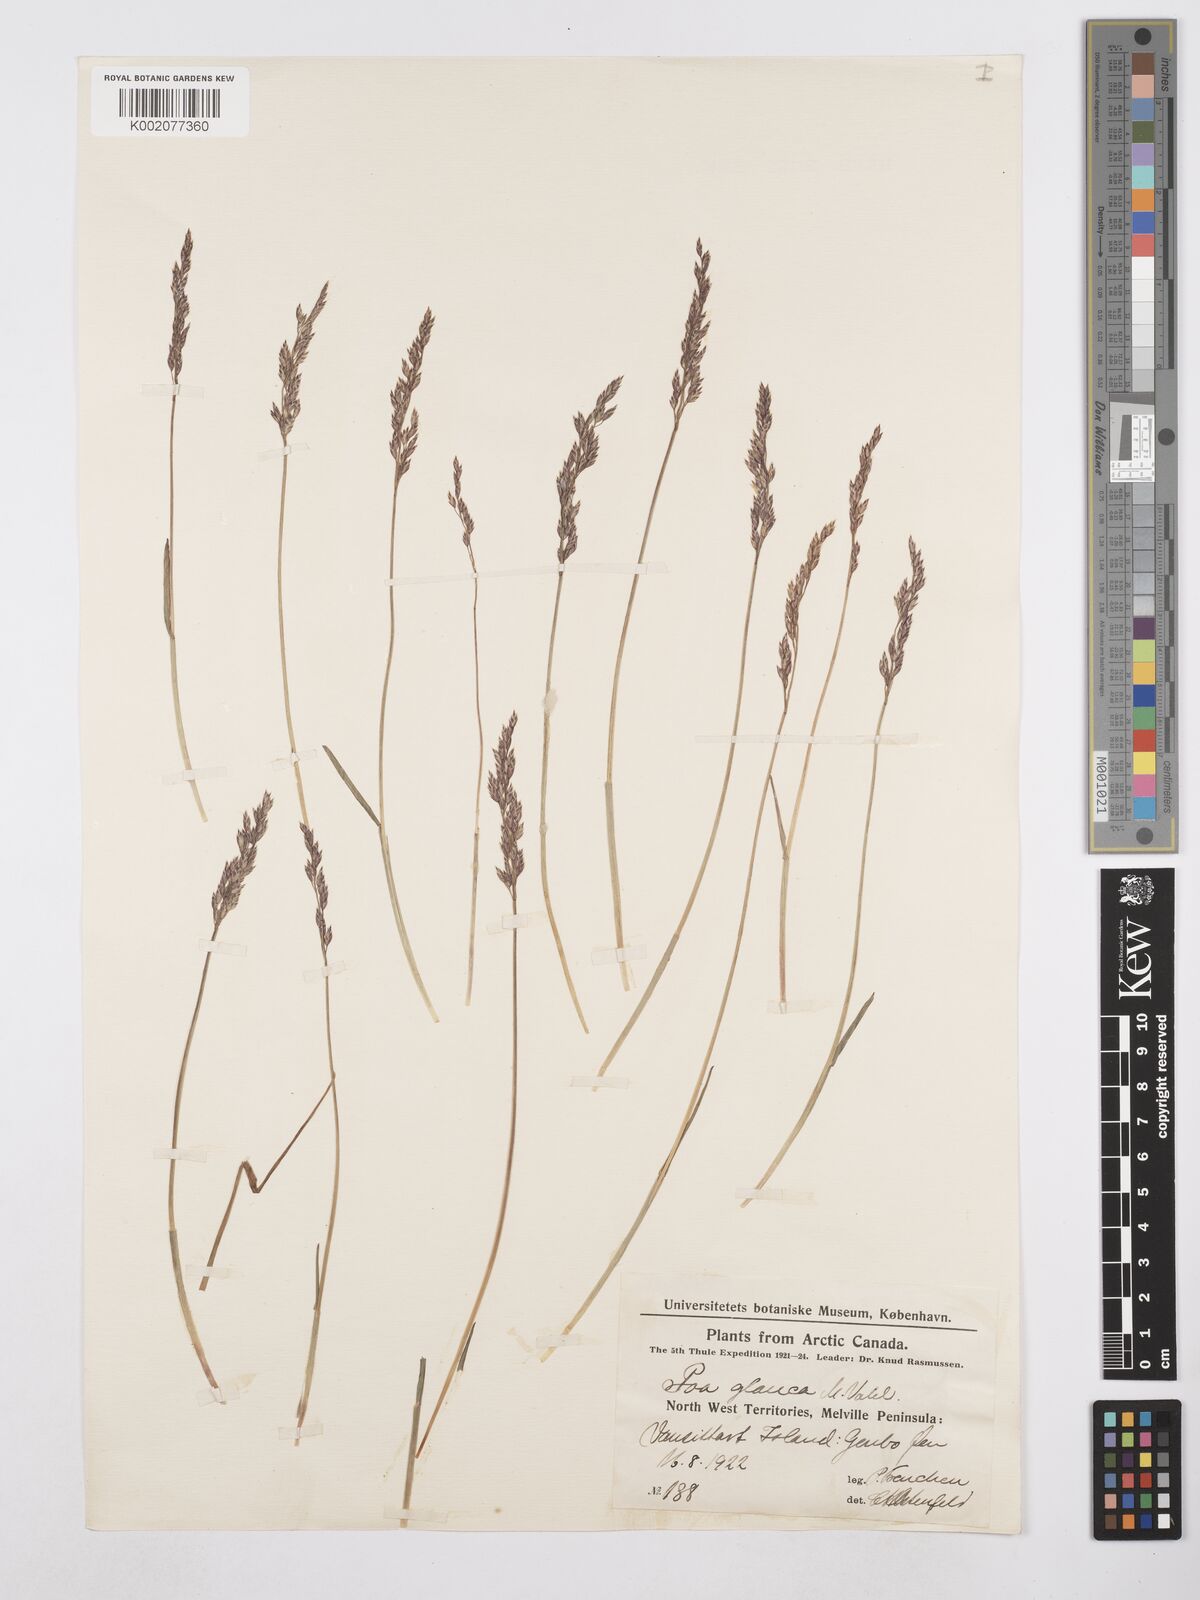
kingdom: Plantae
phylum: Tracheophyta
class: Liliopsida
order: Poales
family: Poaceae
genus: Poa
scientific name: Poa glauca
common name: Glaucous bluegrass
